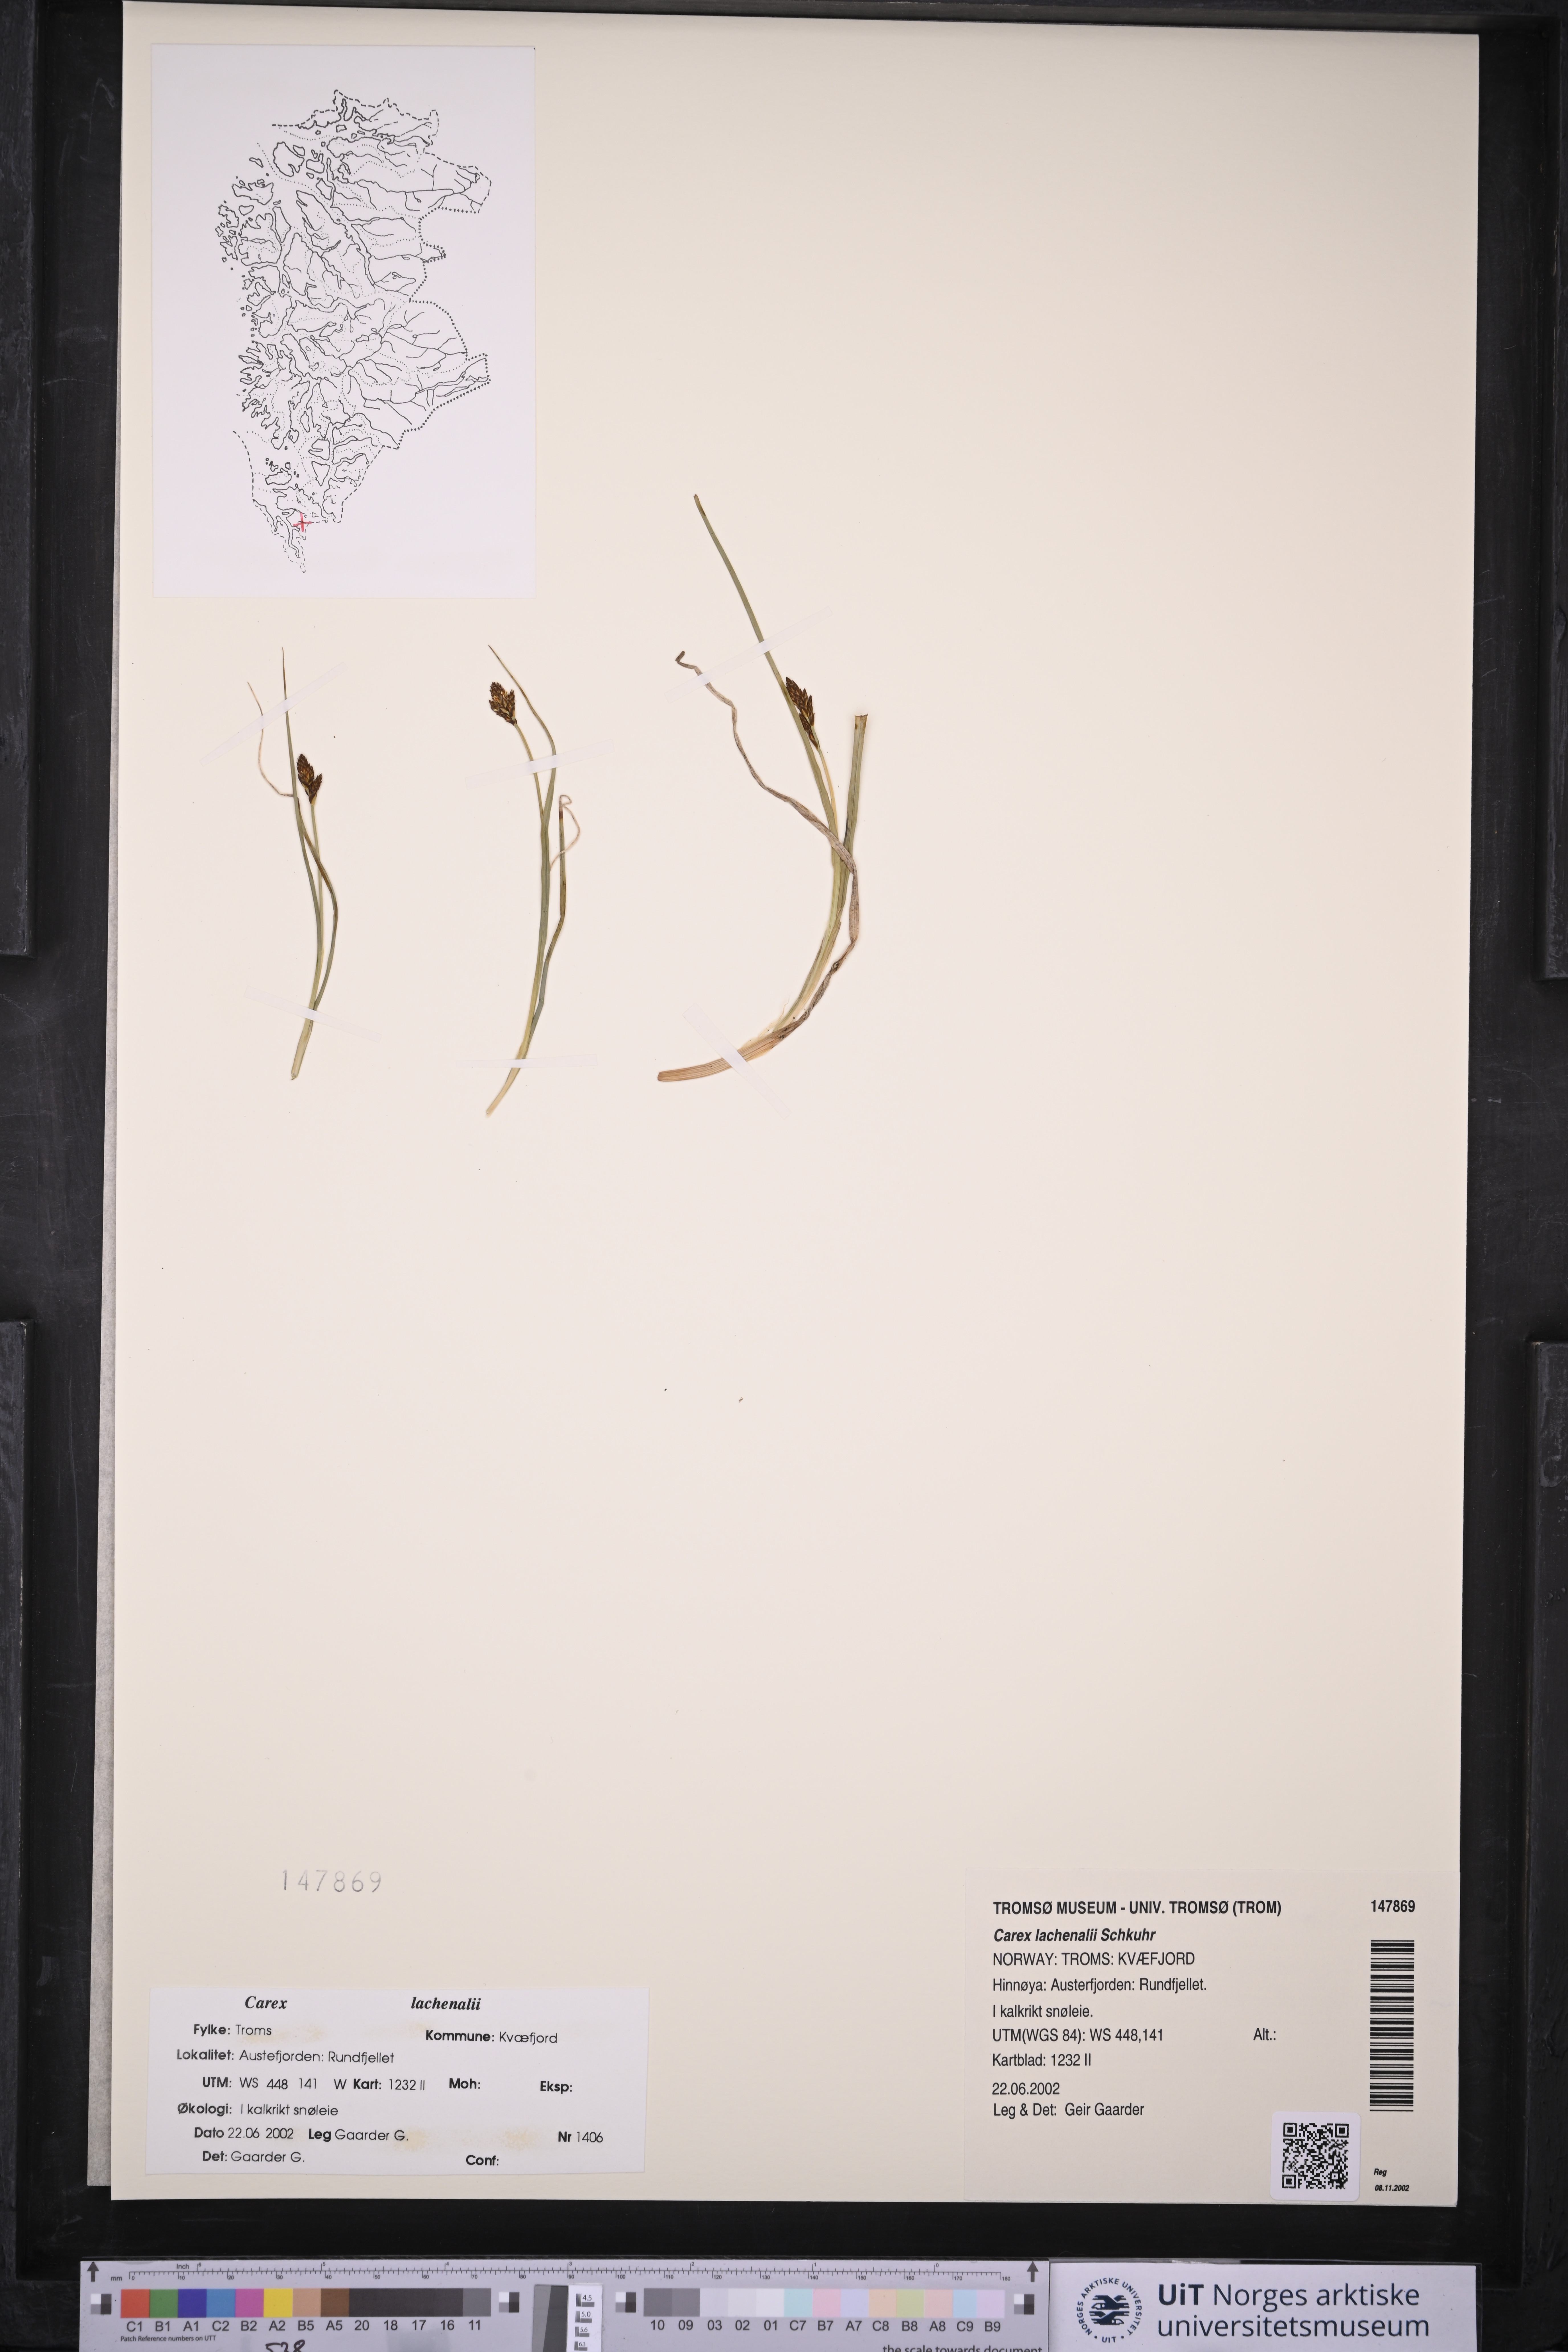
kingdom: Plantae
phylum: Tracheophyta
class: Liliopsida
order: Poales
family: Cyperaceae
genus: Carex
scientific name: Carex lachenalii
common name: Hare's-foot sedge
